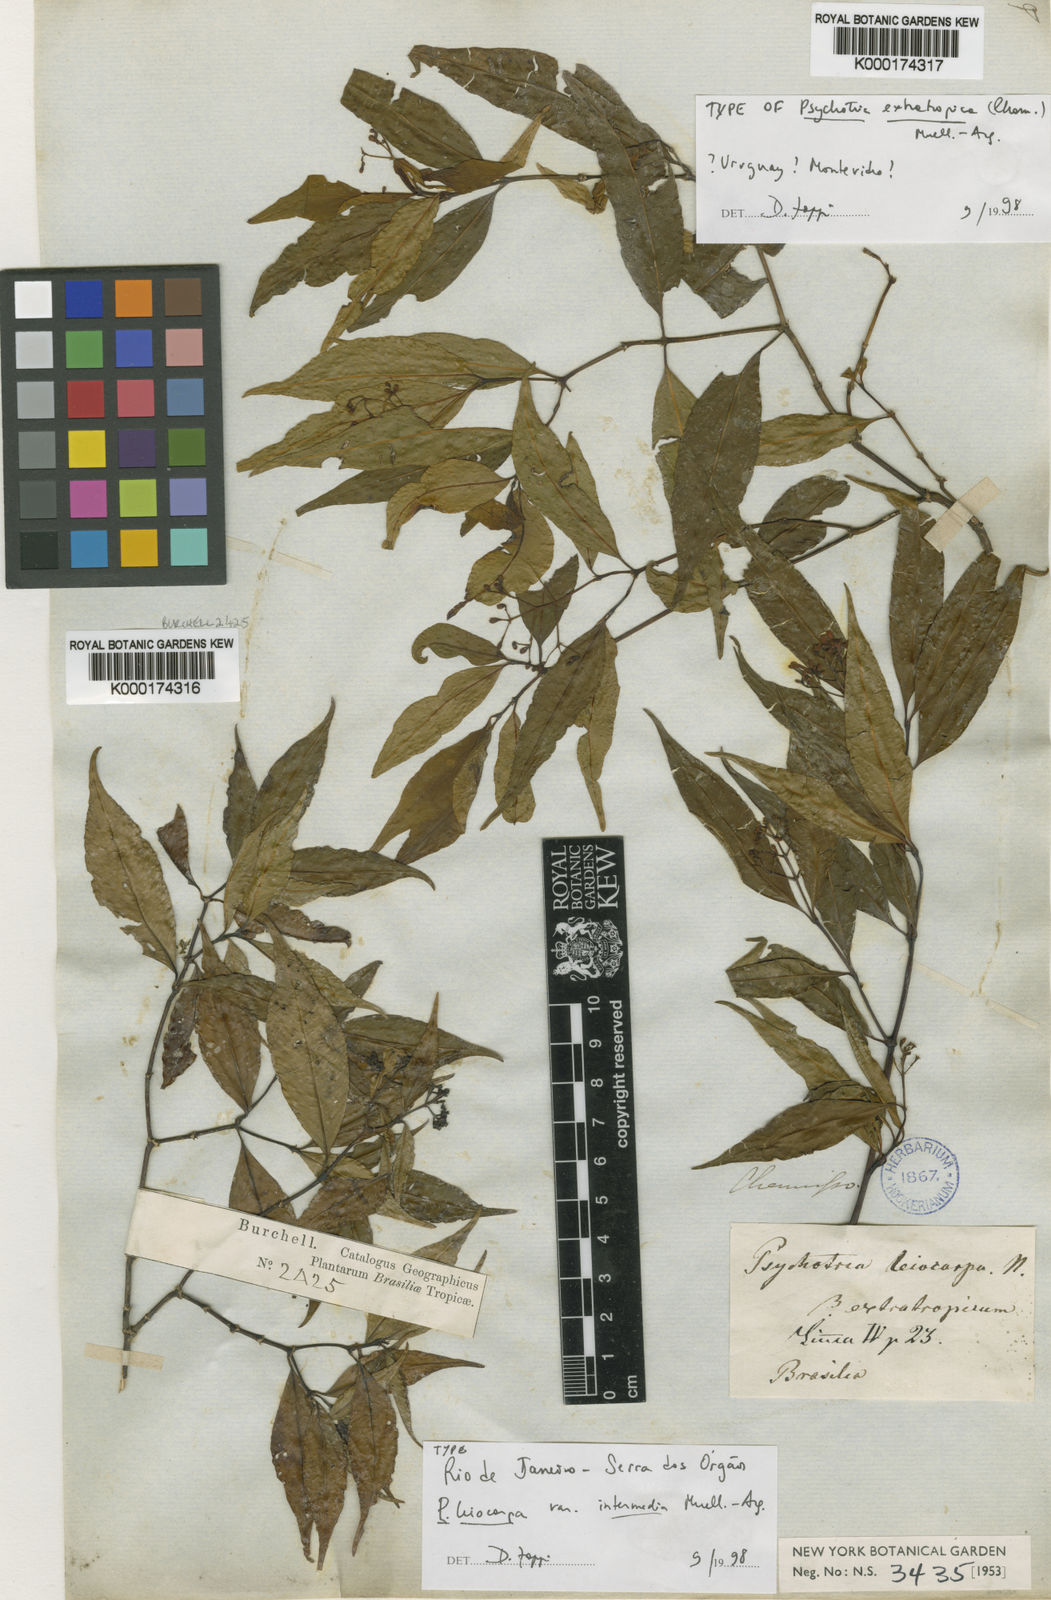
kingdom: Plantae
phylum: Tracheophyta
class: Magnoliopsida
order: Gentianales
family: Rubiaceae
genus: Psychotria
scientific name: Psychotria
